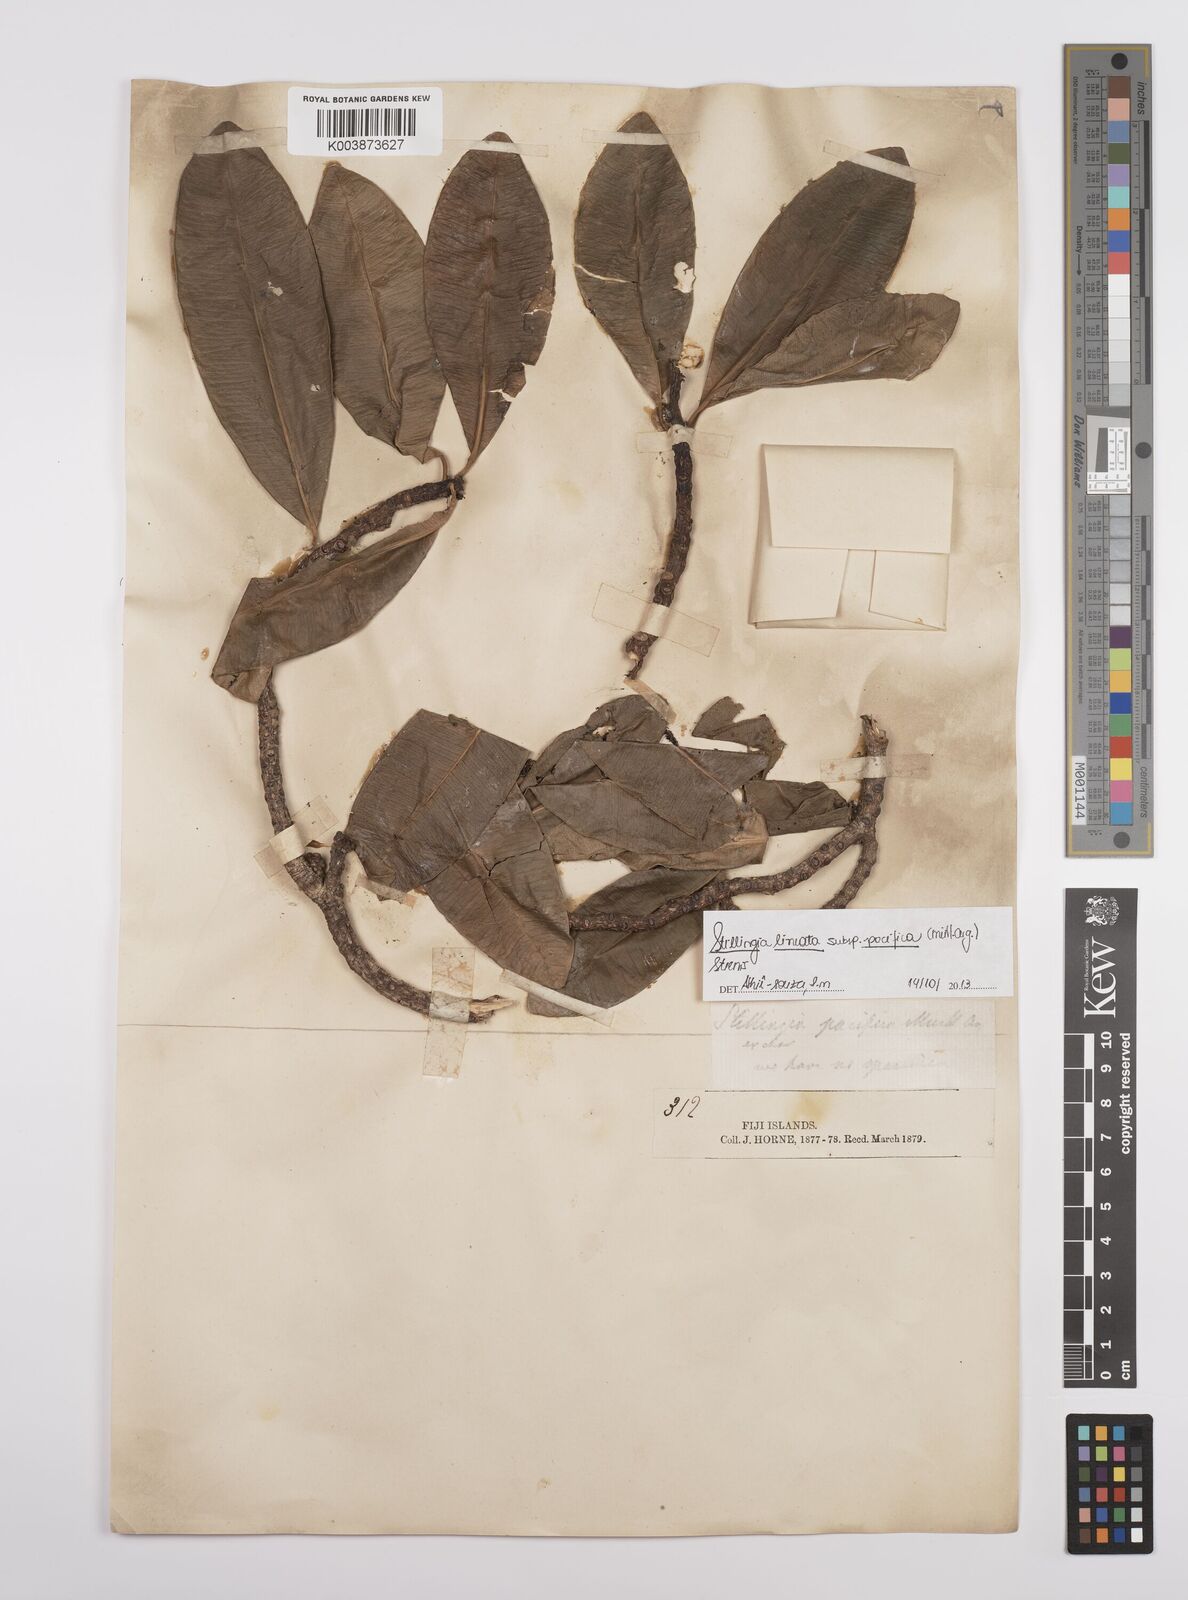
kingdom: Plantae
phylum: Tracheophyta
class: Magnoliopsida
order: Malpighiales
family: Euphorbiaceae
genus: Stillingia
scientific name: Stillingia lineata
